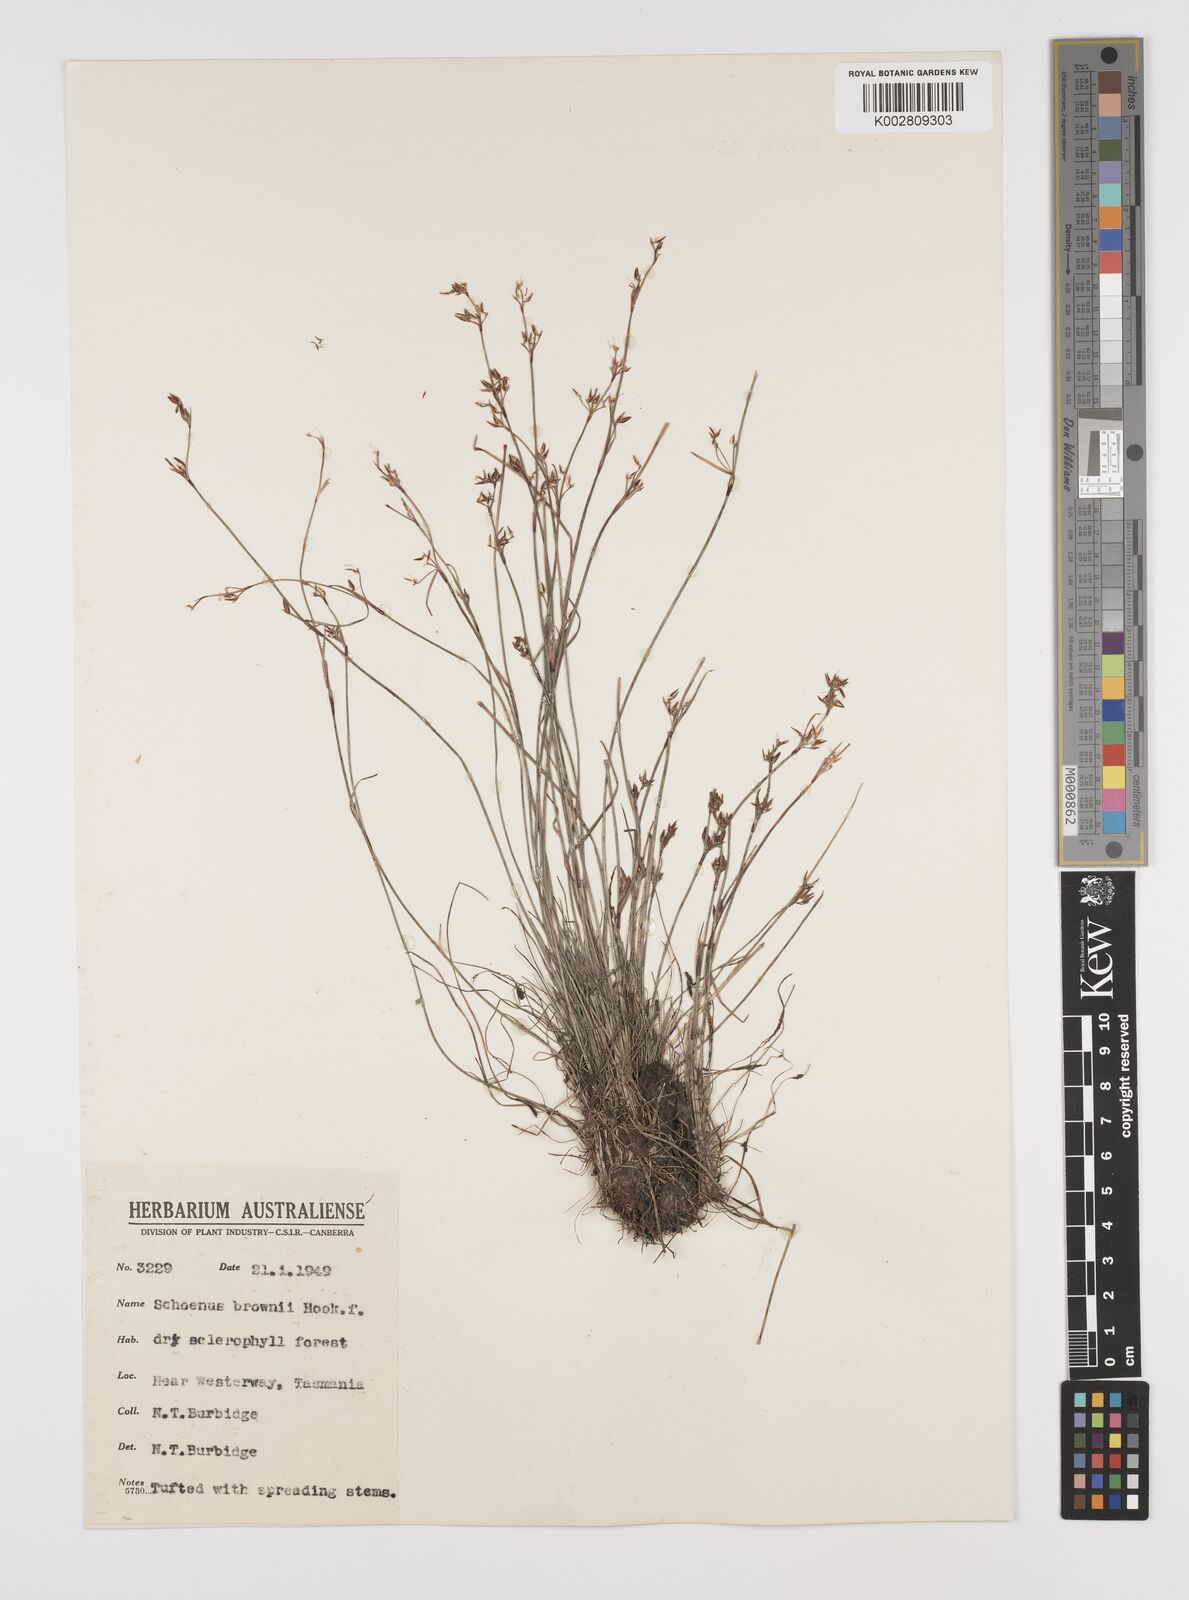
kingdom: Plantae
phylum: Tracheophyta
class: Liliopsida
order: Poales
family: Cyperaceae
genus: Schoenus
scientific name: Schoenus apogon
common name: Smooth bogrush
